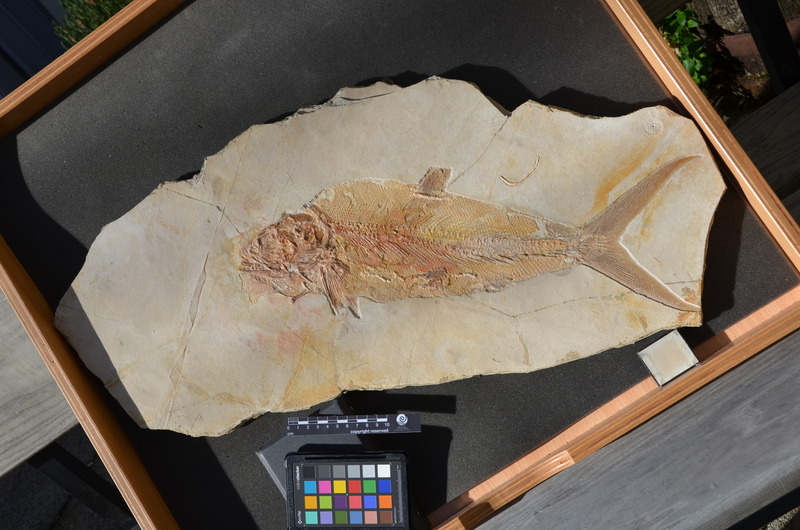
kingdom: Animalia
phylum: Chordata
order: Amiiformes
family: Caturidae
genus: Amblysemius
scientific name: Amblysemius bellicianus
